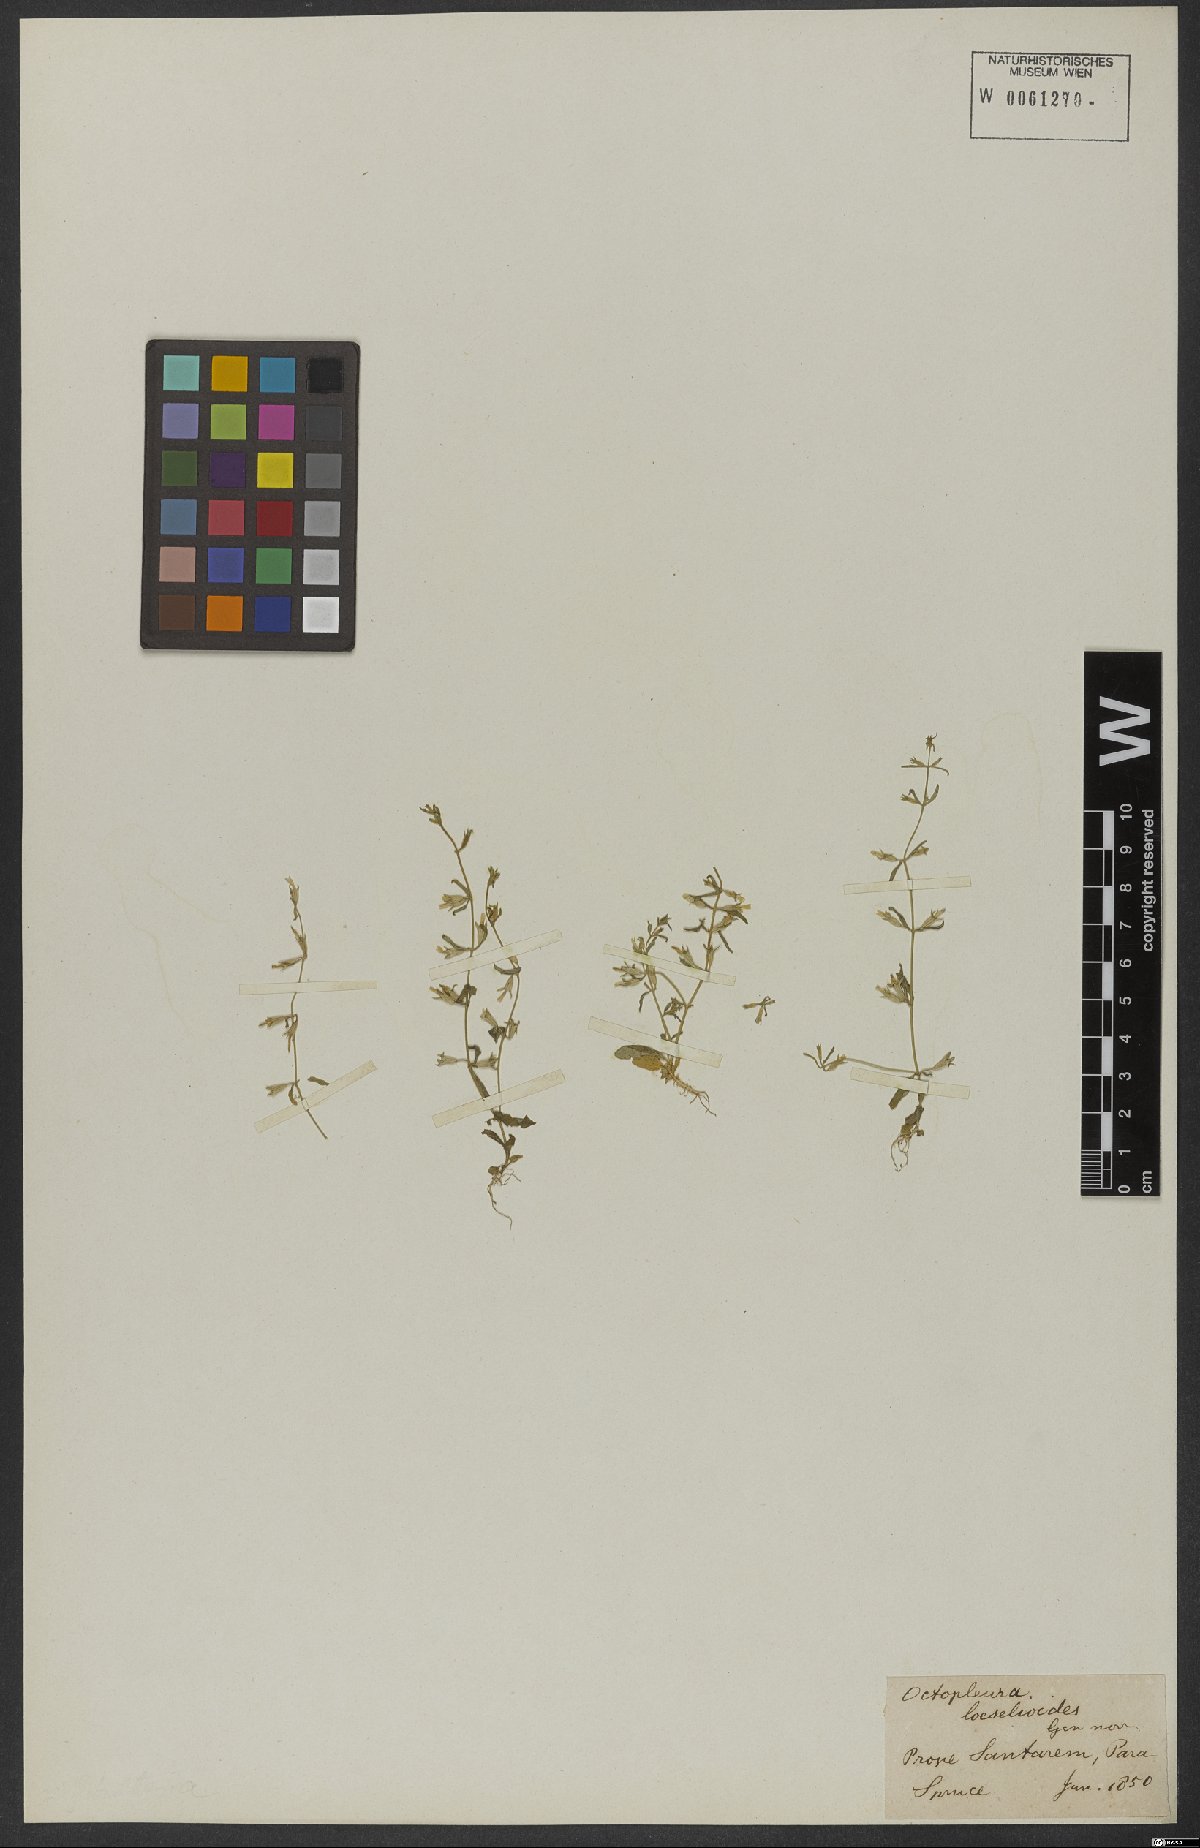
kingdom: Plantae
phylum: Tracheophyta
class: Magnoliopsida
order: Gentianales
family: Gentianaceae
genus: Neurotheca
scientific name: Neurotheca loeselioides
